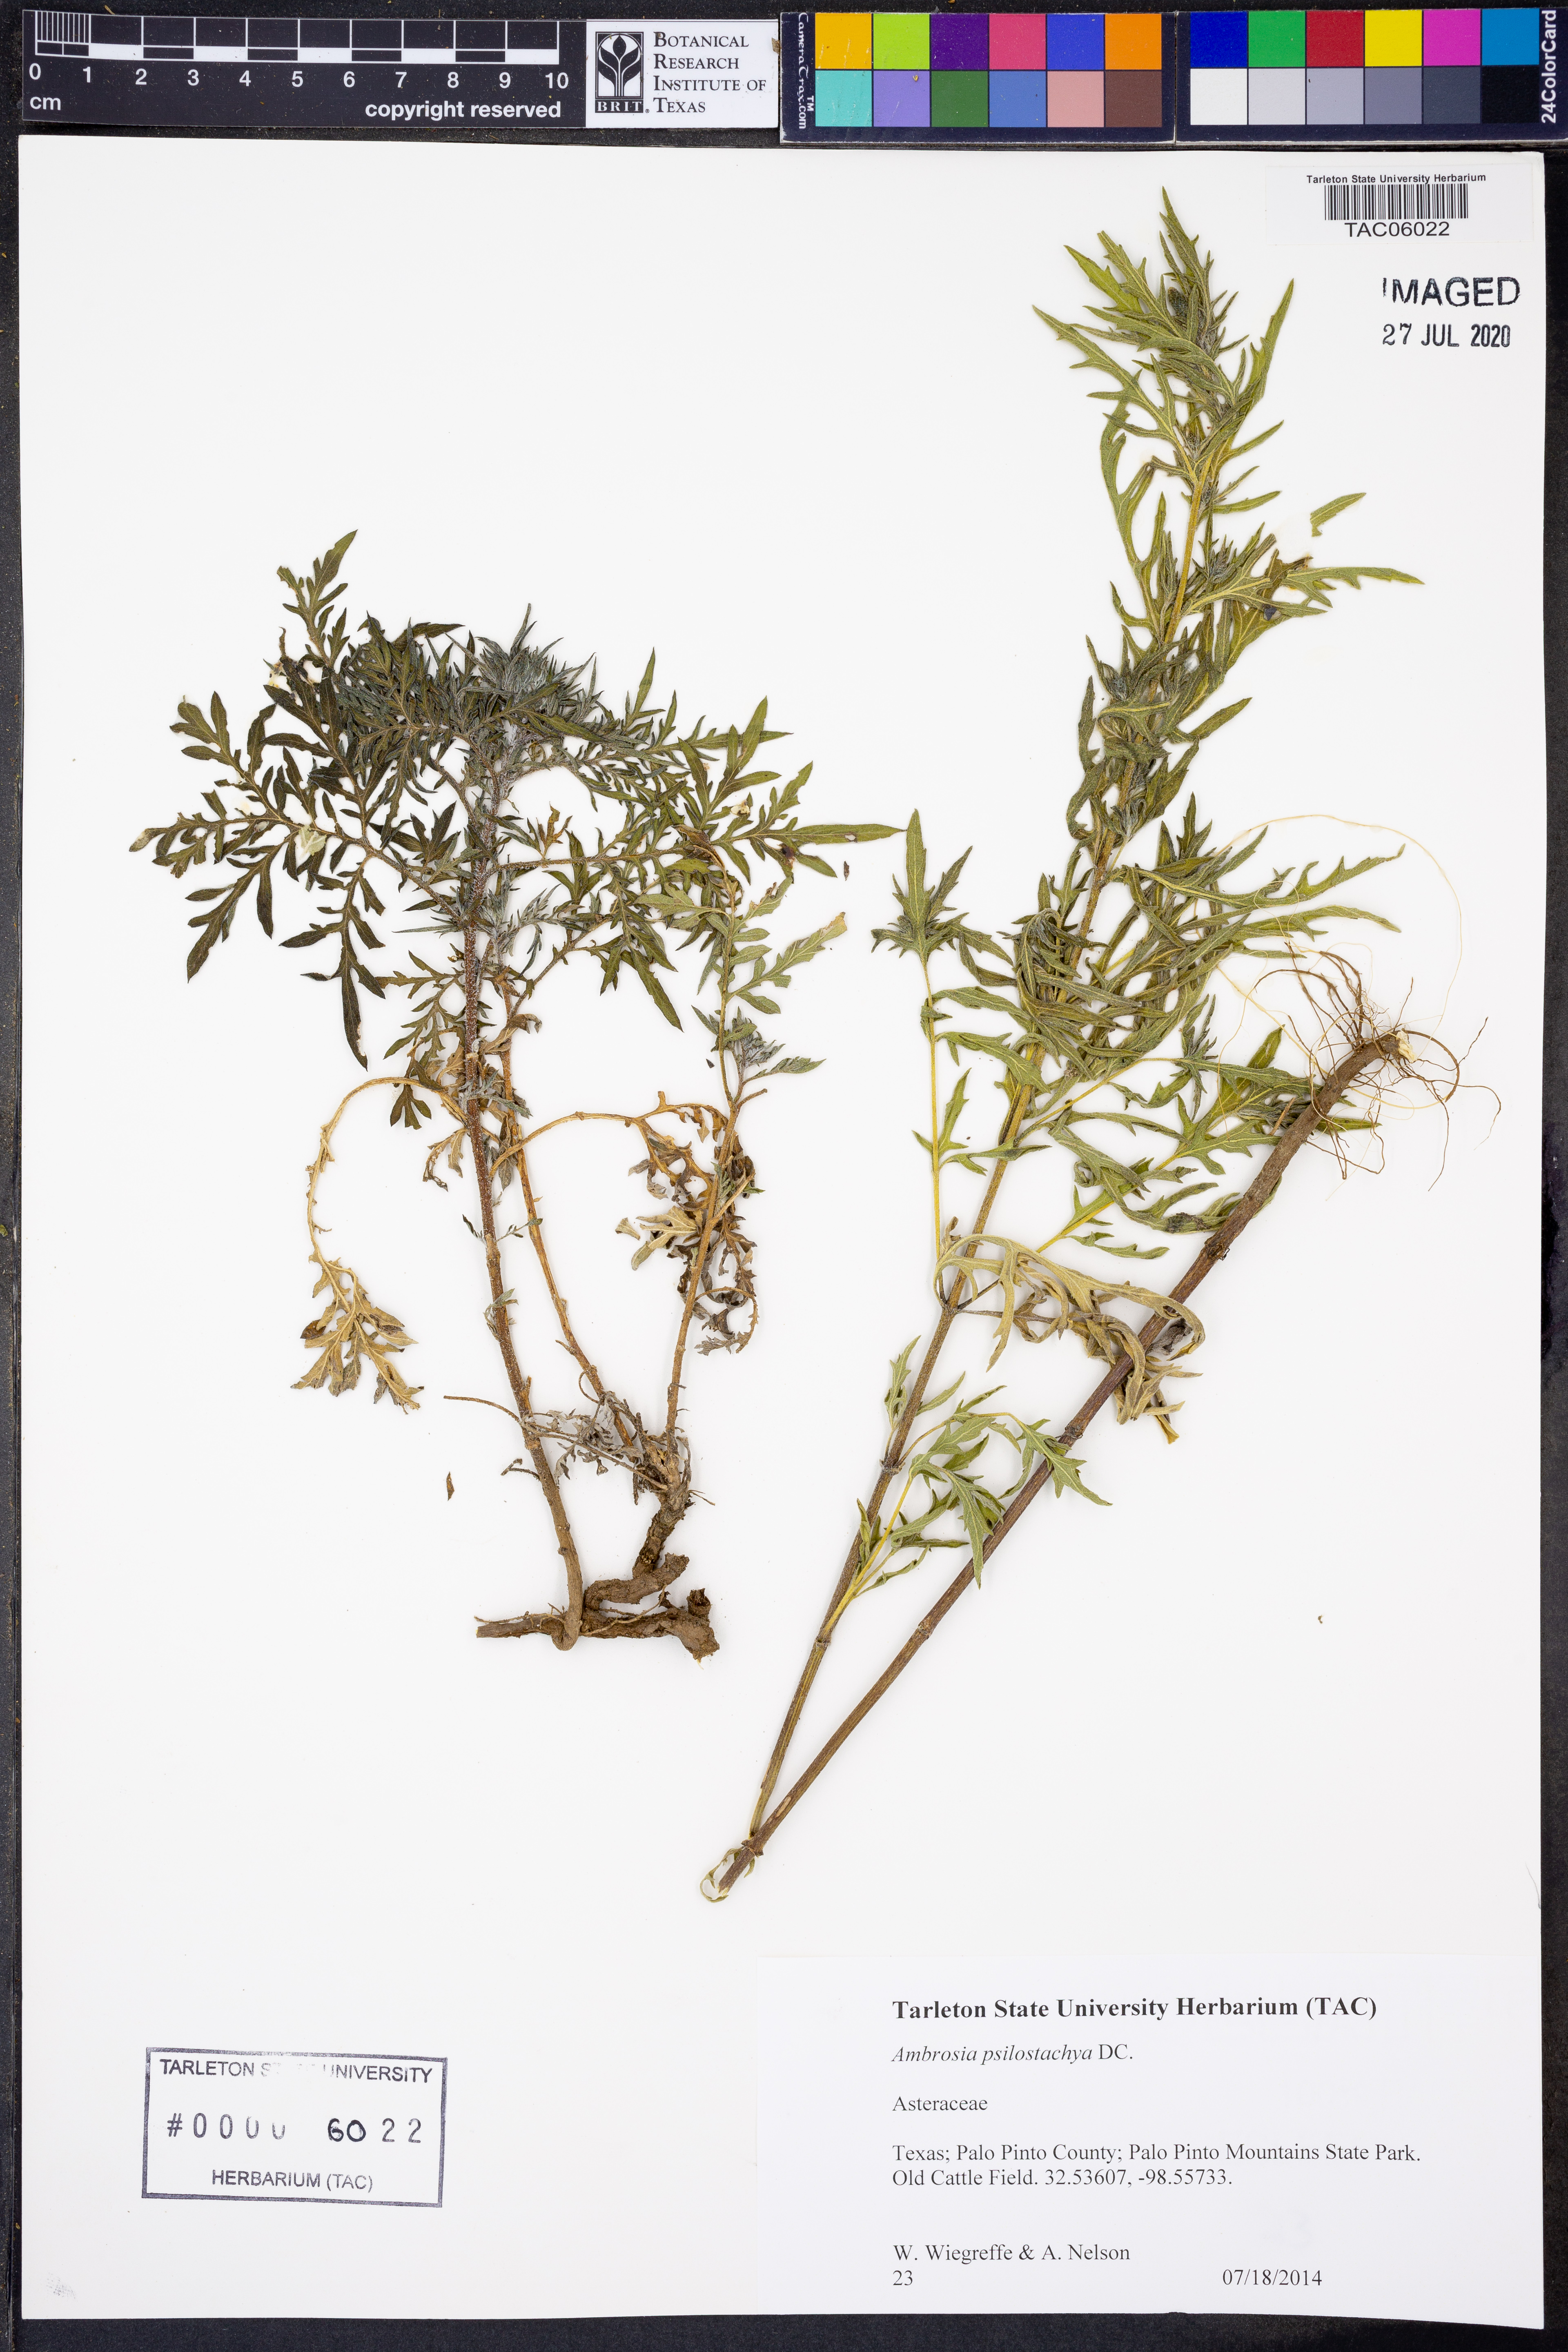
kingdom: Plantae
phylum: Tracheophyta
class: Magnoliopsida
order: Asterales
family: Asteraceae
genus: Ambrosia
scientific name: Ambrosia psilostachya
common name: Perennial ragweed
